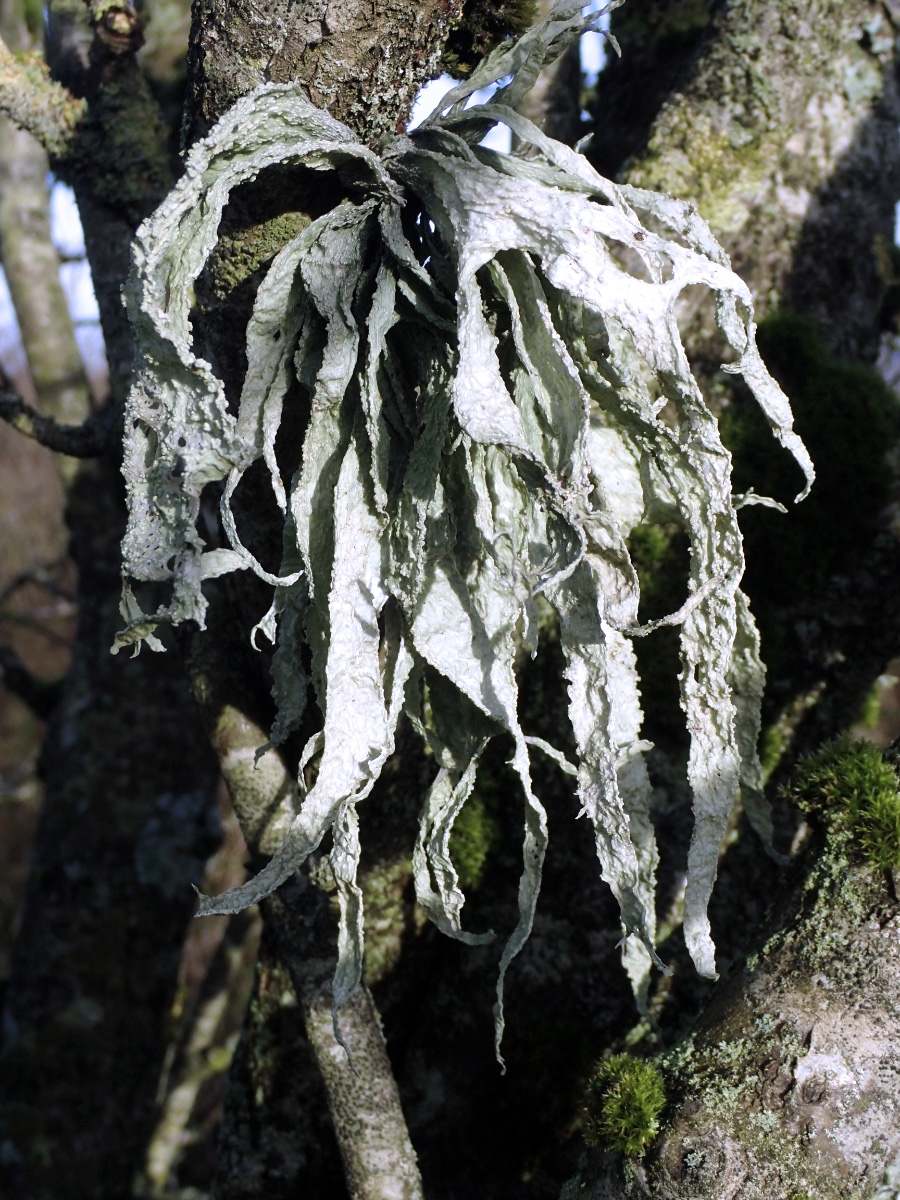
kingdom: Fungi
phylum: Ascomycota
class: Lecanoromycetes
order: Lecanorales
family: Ramalinaceae
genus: Ramalina
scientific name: Ramalina fraxinea
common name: stor grenlav
